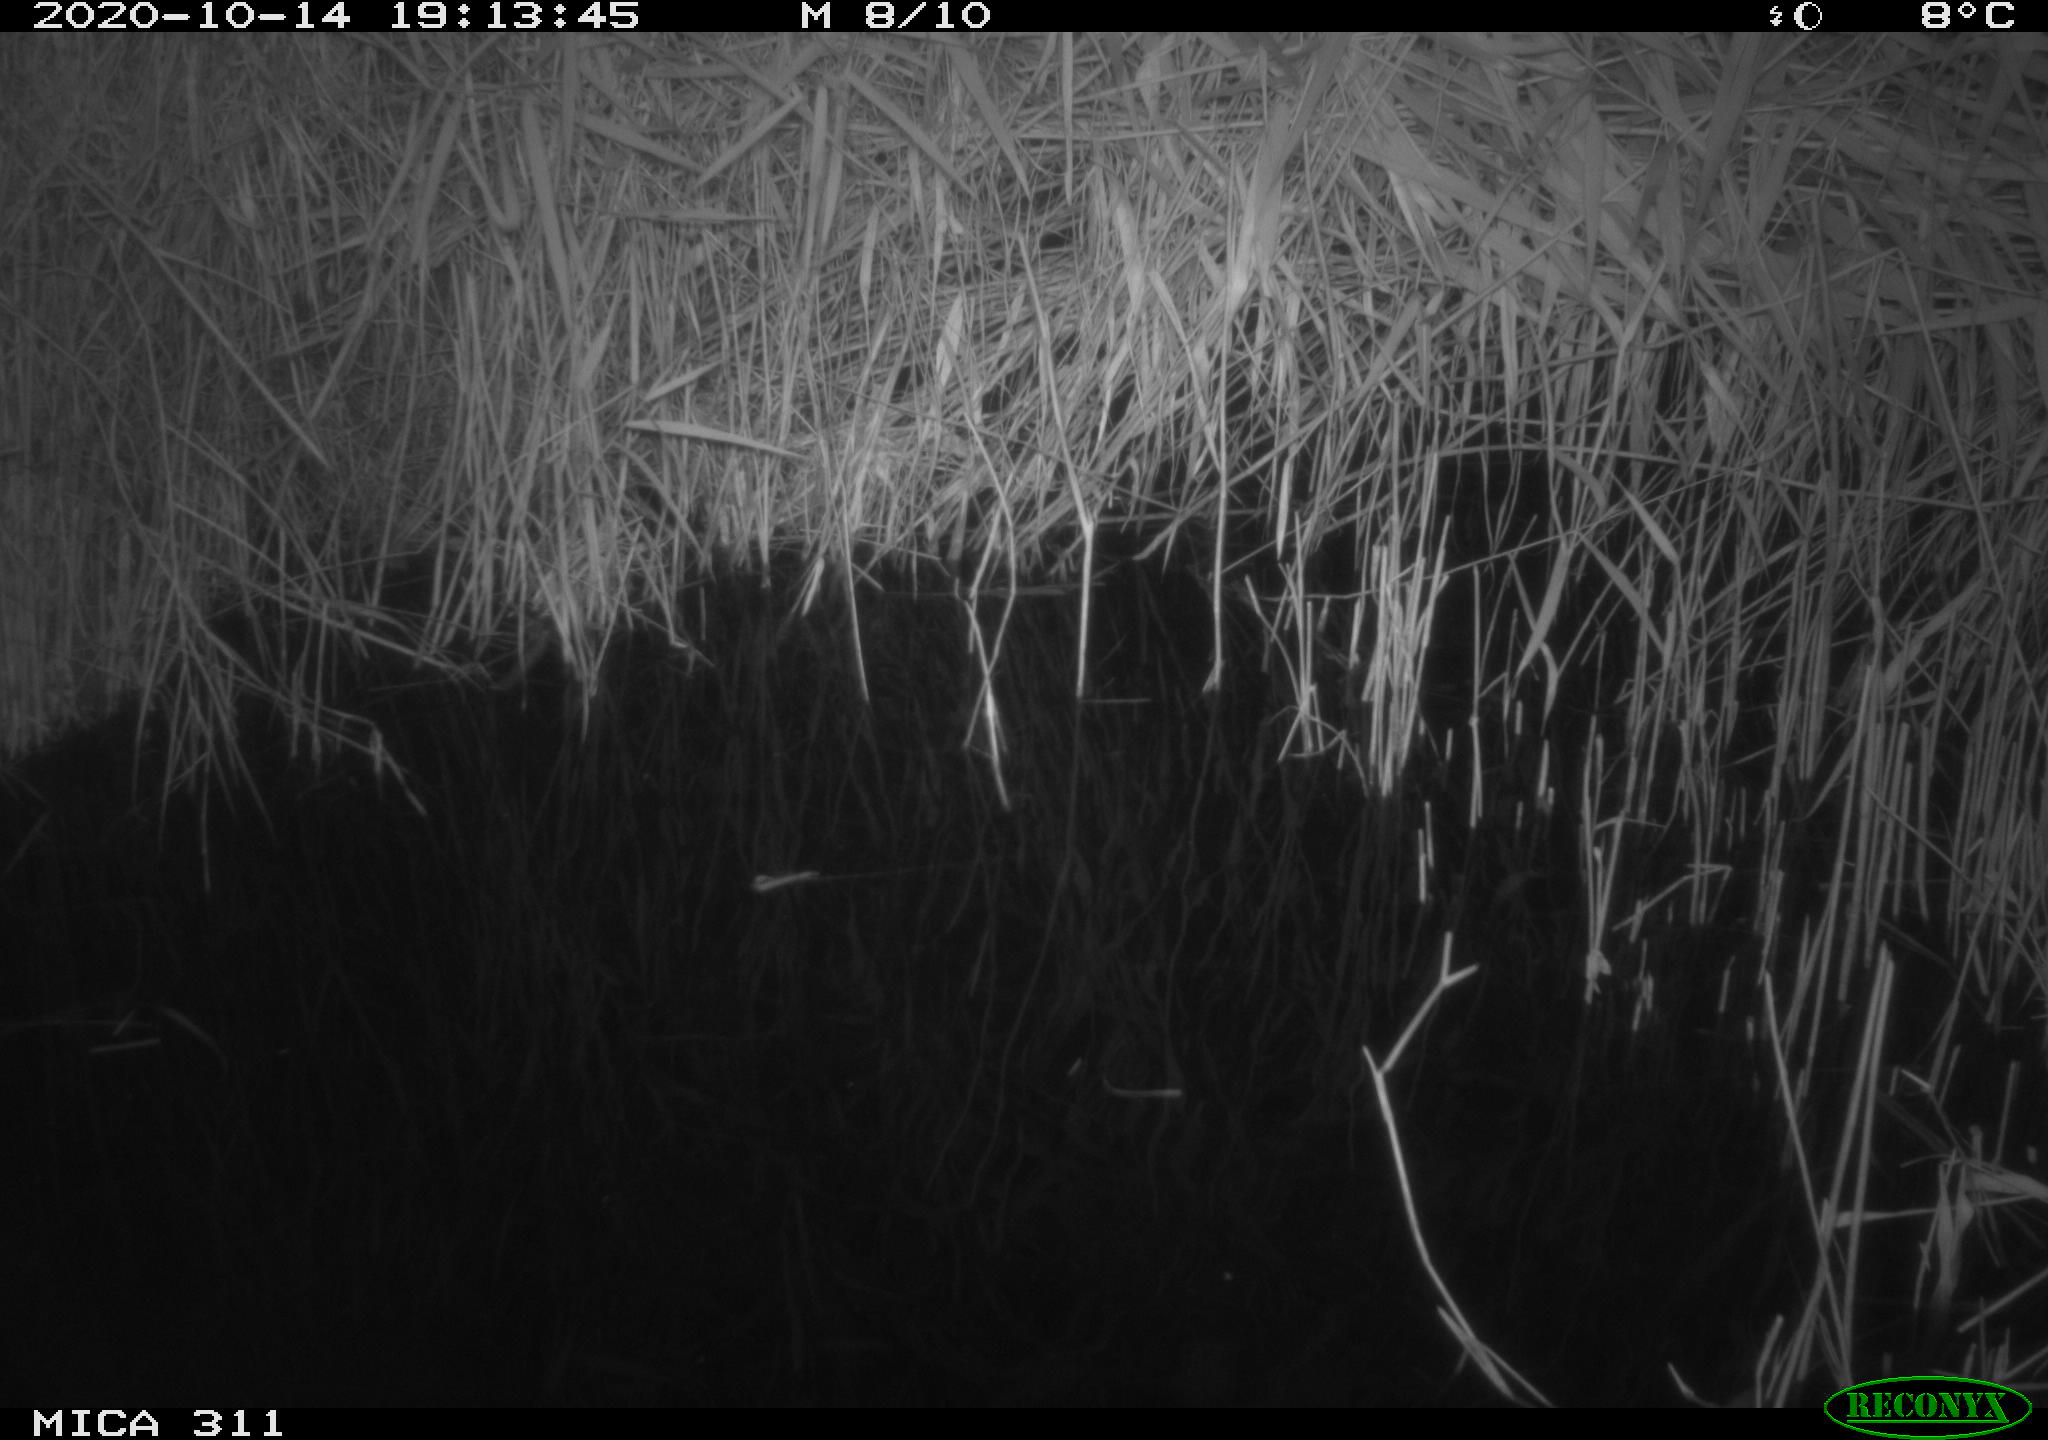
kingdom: Animalia
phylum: Chordata
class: Mammalia
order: Rodentia
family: Muridae
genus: Rattus
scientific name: Rattus norvegicus
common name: Brown rat
